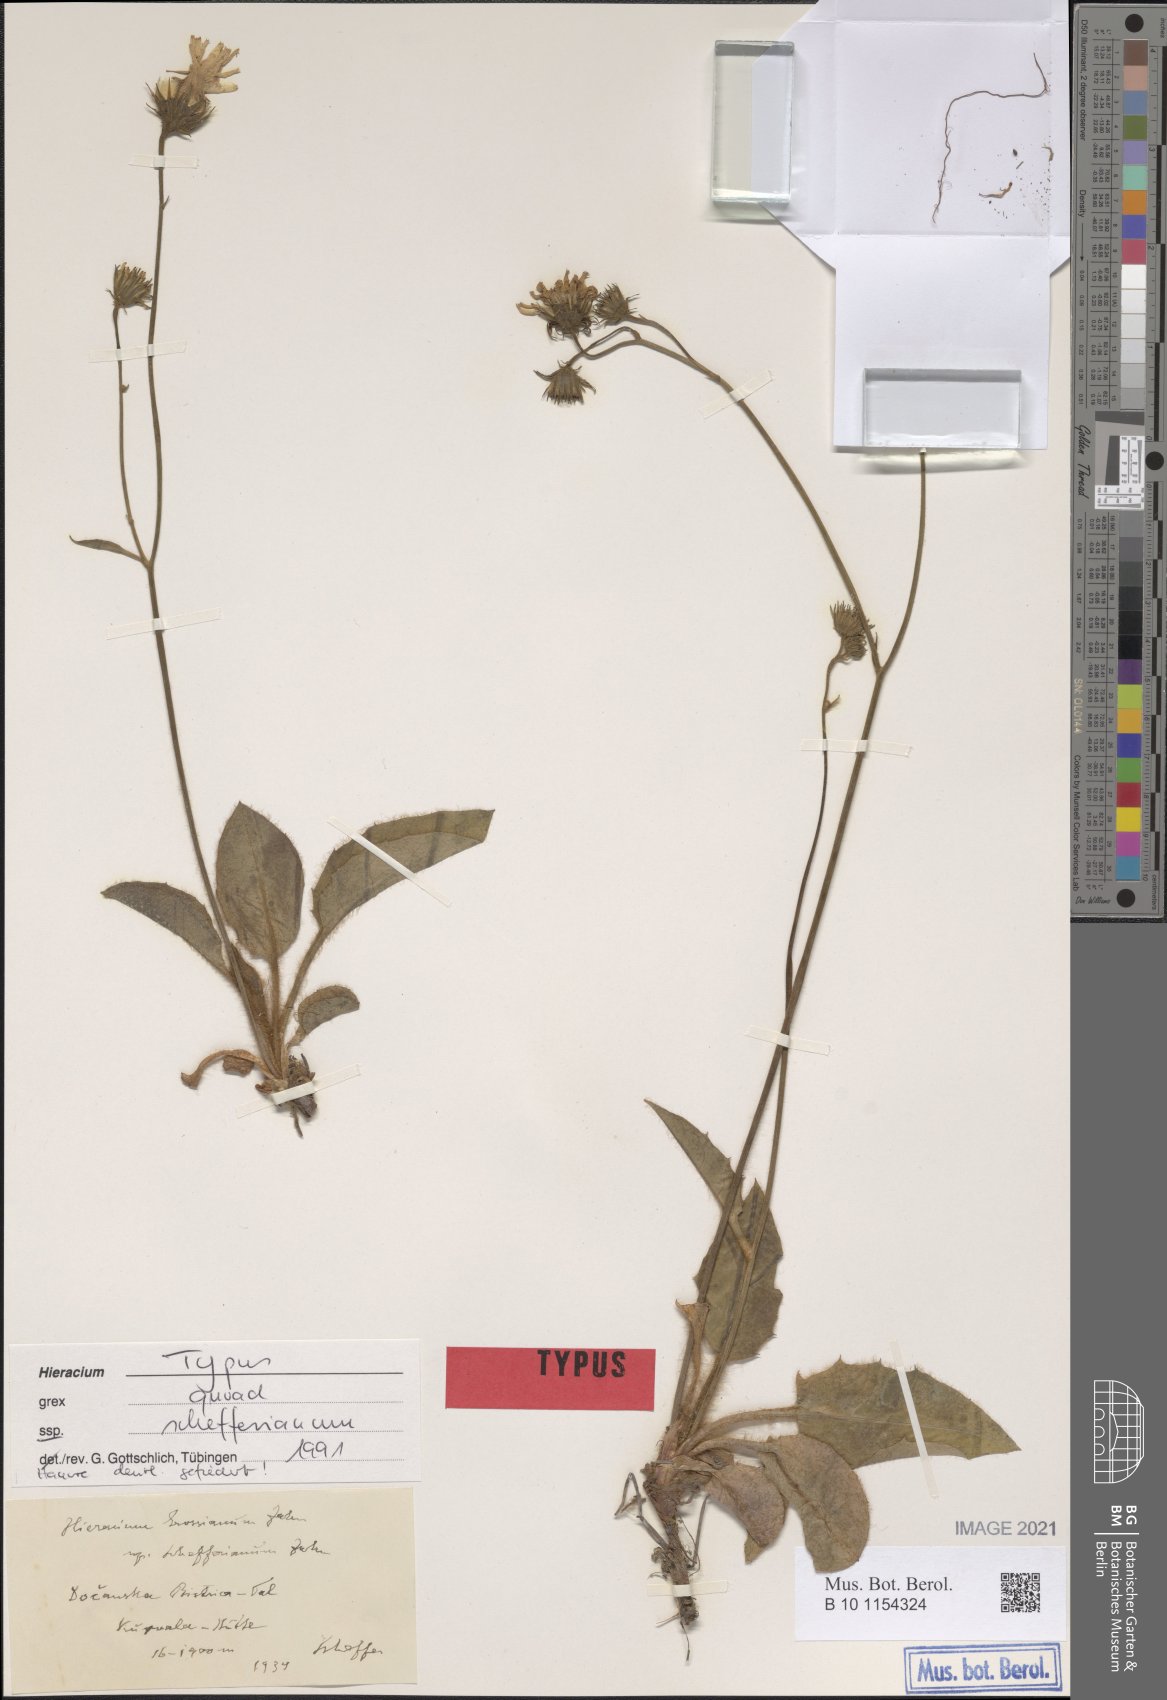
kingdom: Plantae
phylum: Tracheophyta
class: Magnoliopsida
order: Asterales
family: Asteraceae
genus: Hieracium
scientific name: Hieracium grossianum
